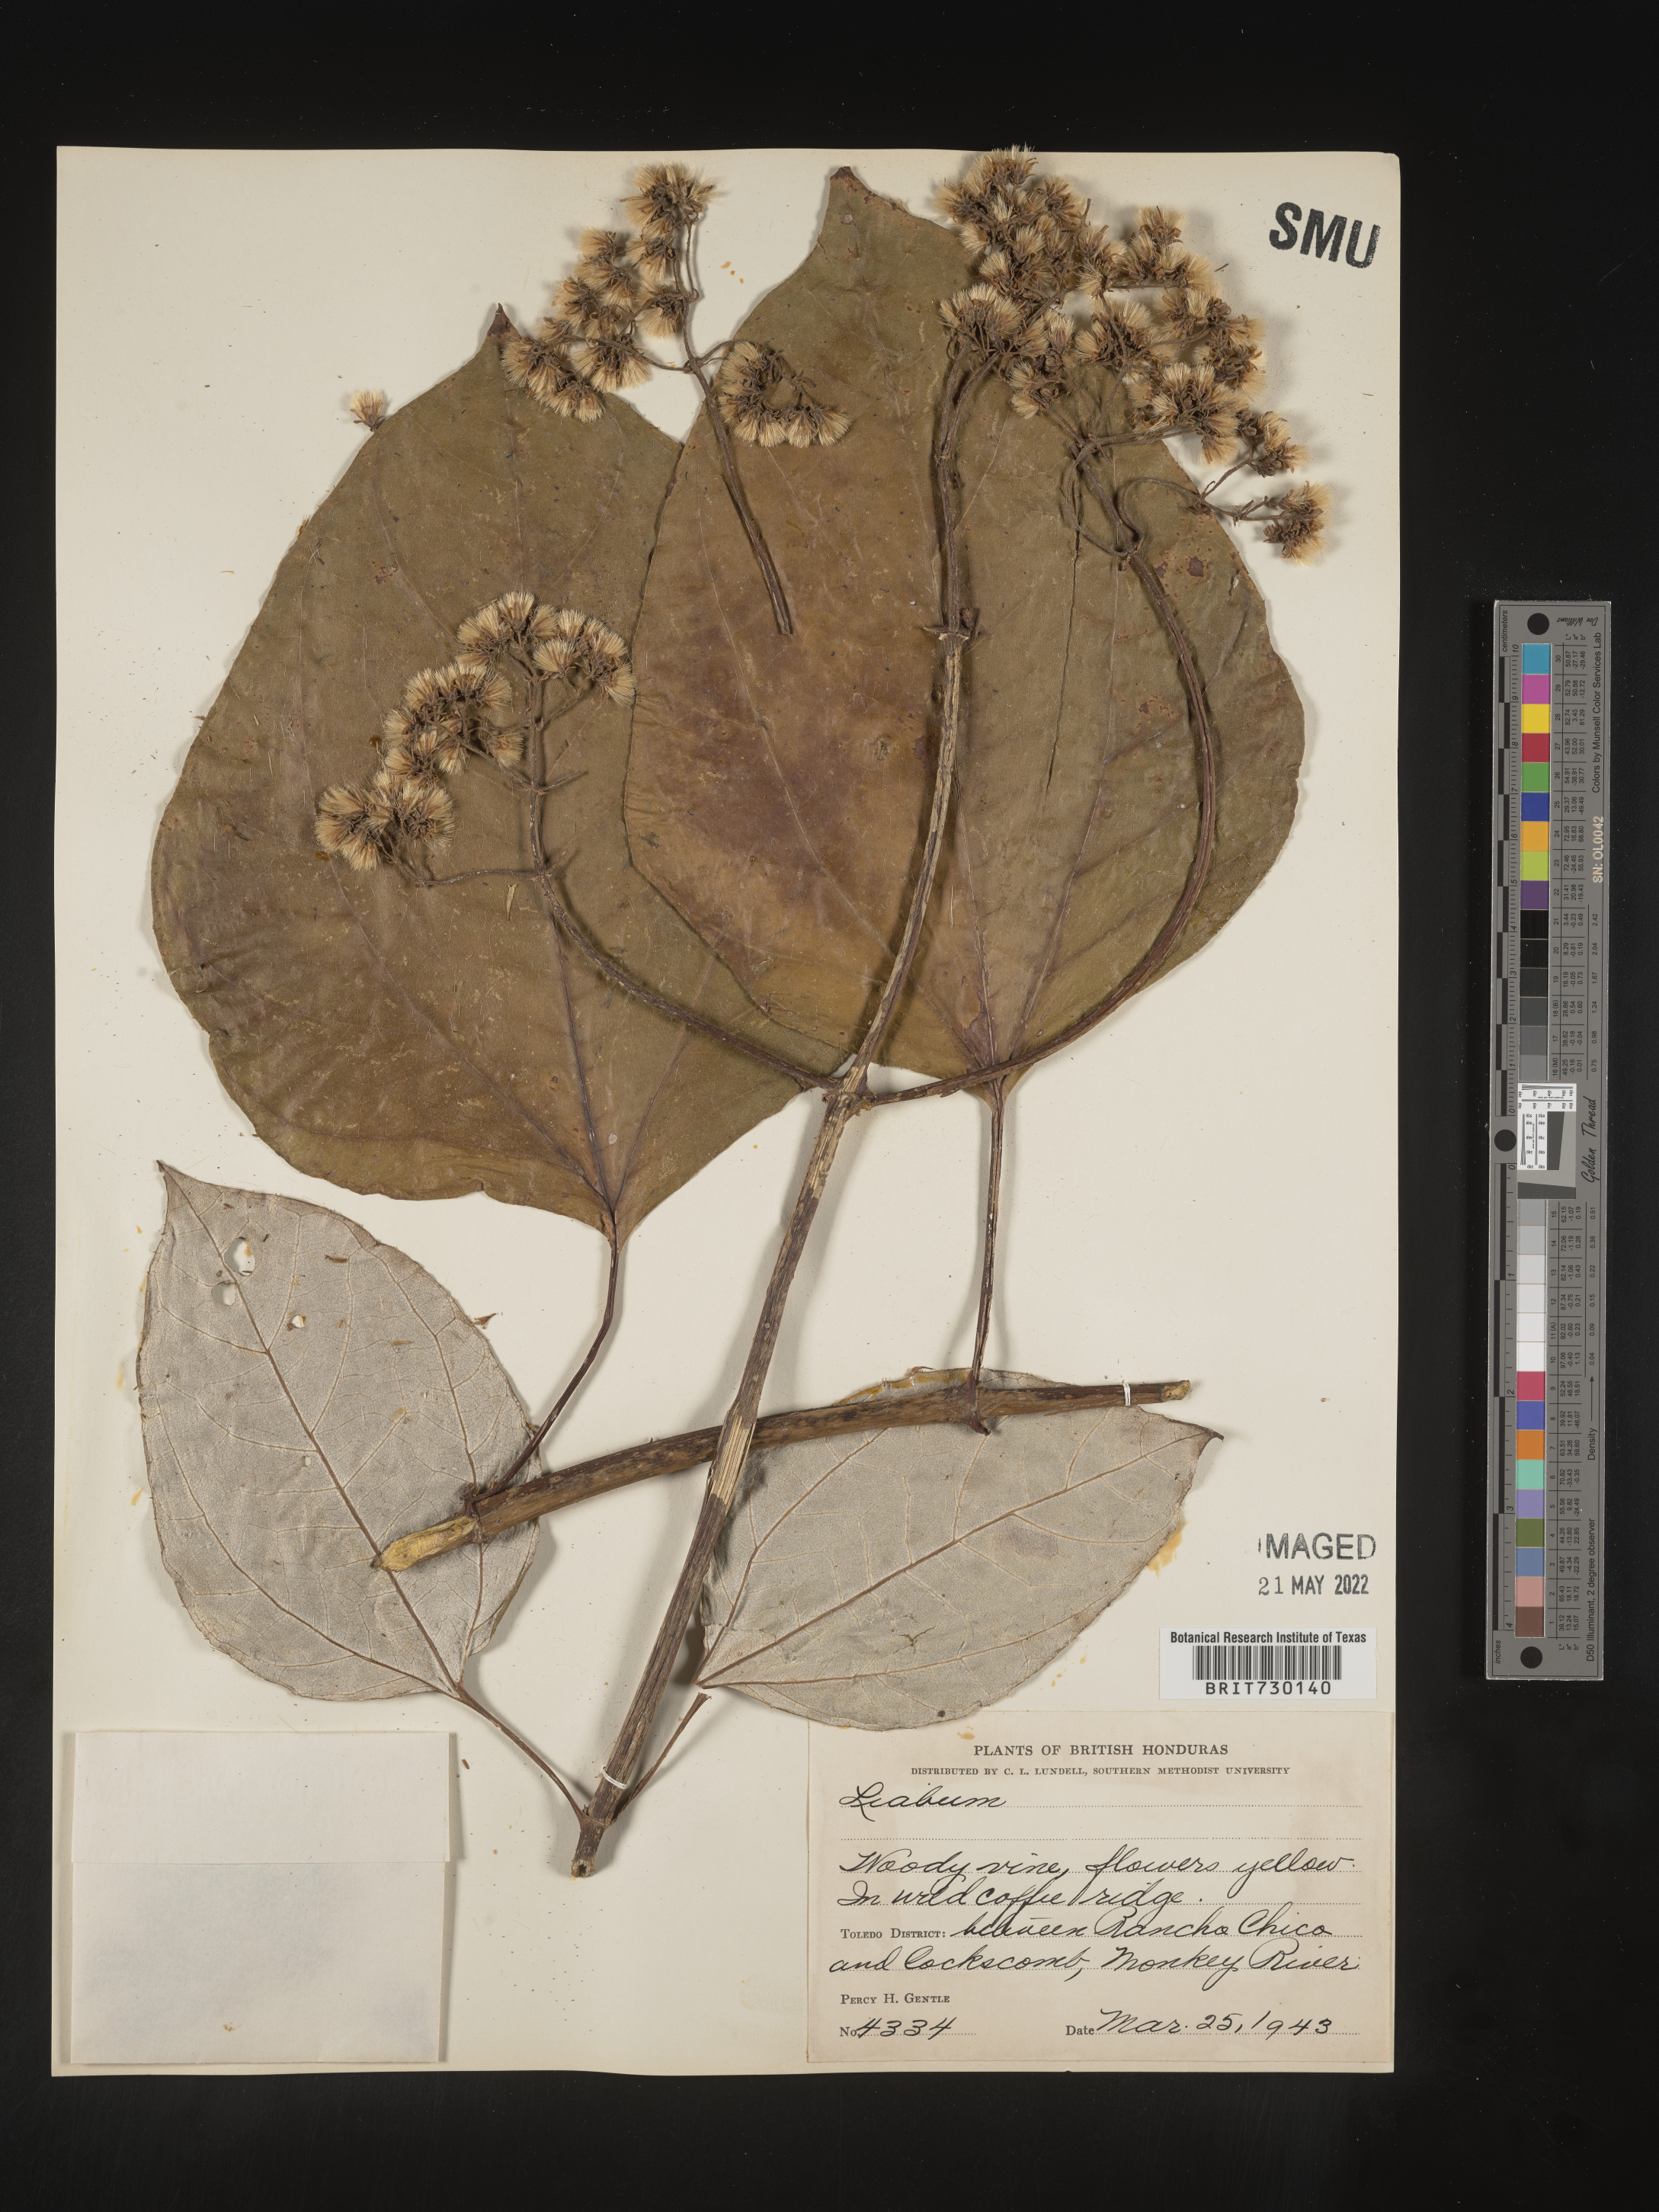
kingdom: Plantae
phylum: Tracheophyta
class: Magnoliopsida
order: Asterales
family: Asteraceae
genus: Liabum
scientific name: Liabum
